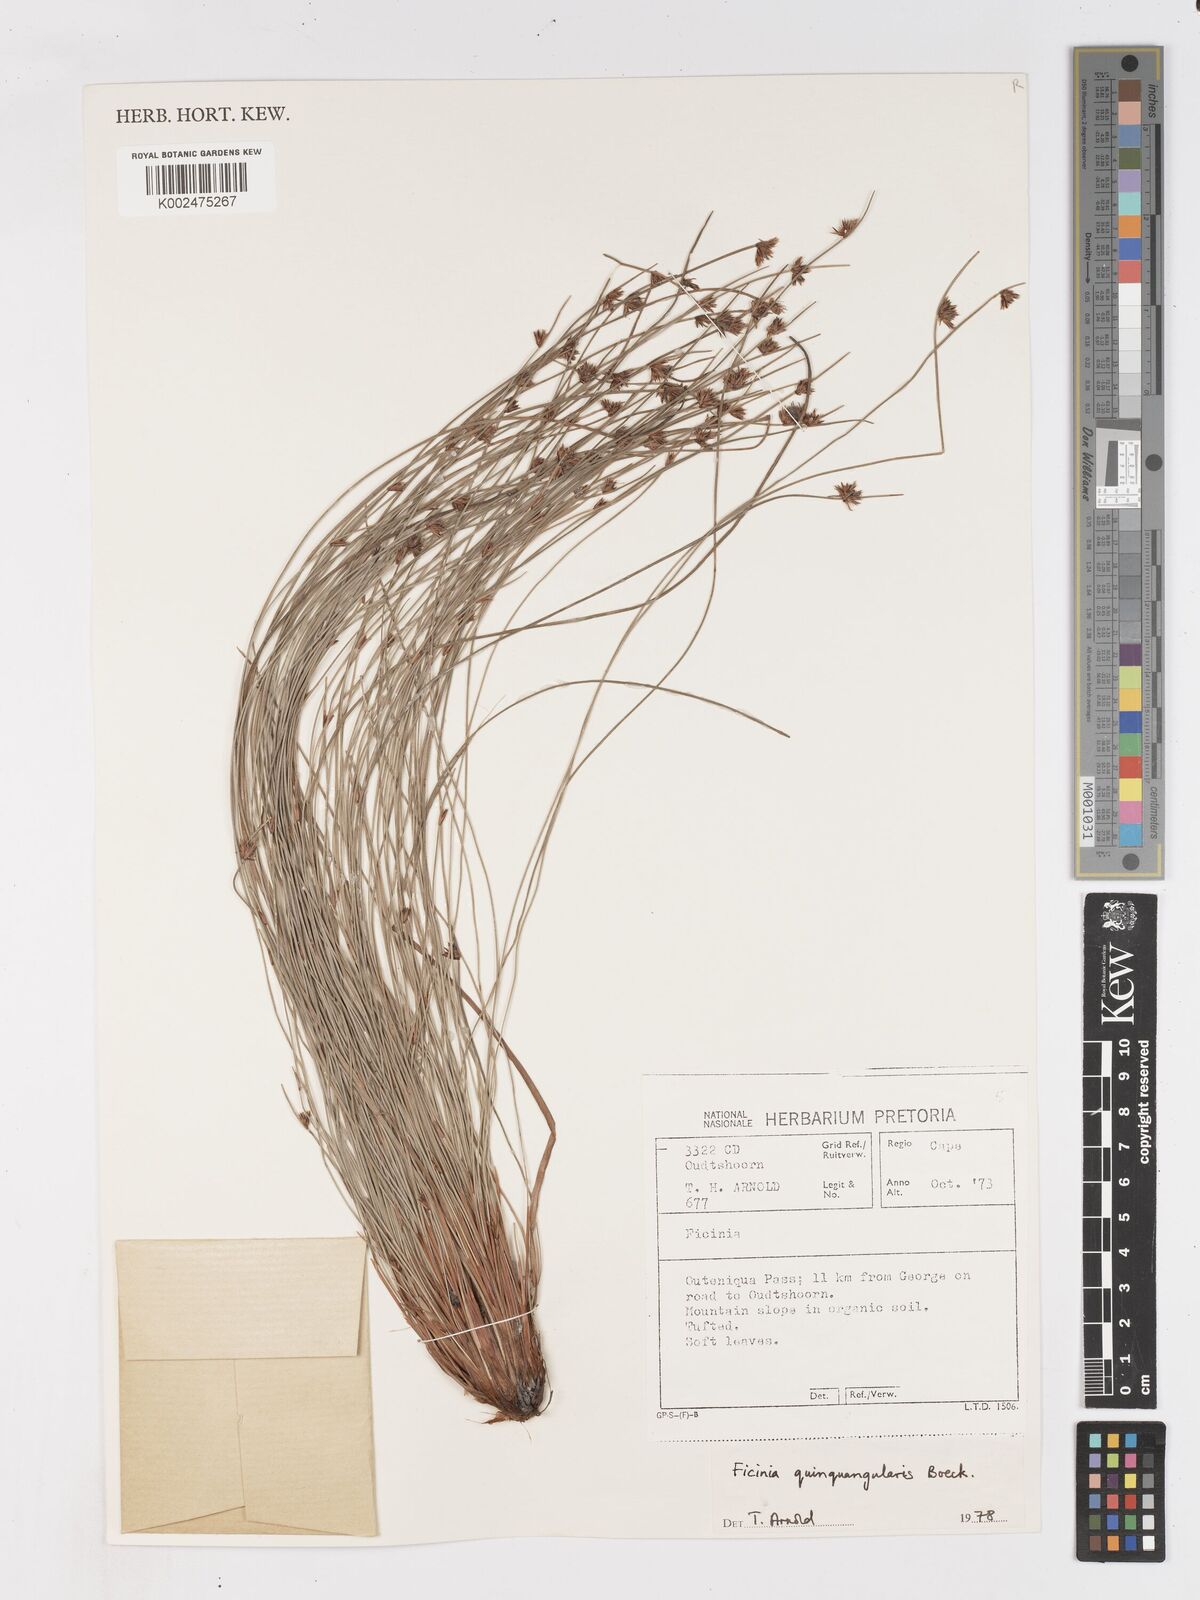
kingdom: Plantae
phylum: Tracheophyta
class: Liliopsida
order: Poales
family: Cyperaceae
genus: Ficinia
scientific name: Ficinia quinquangularis
